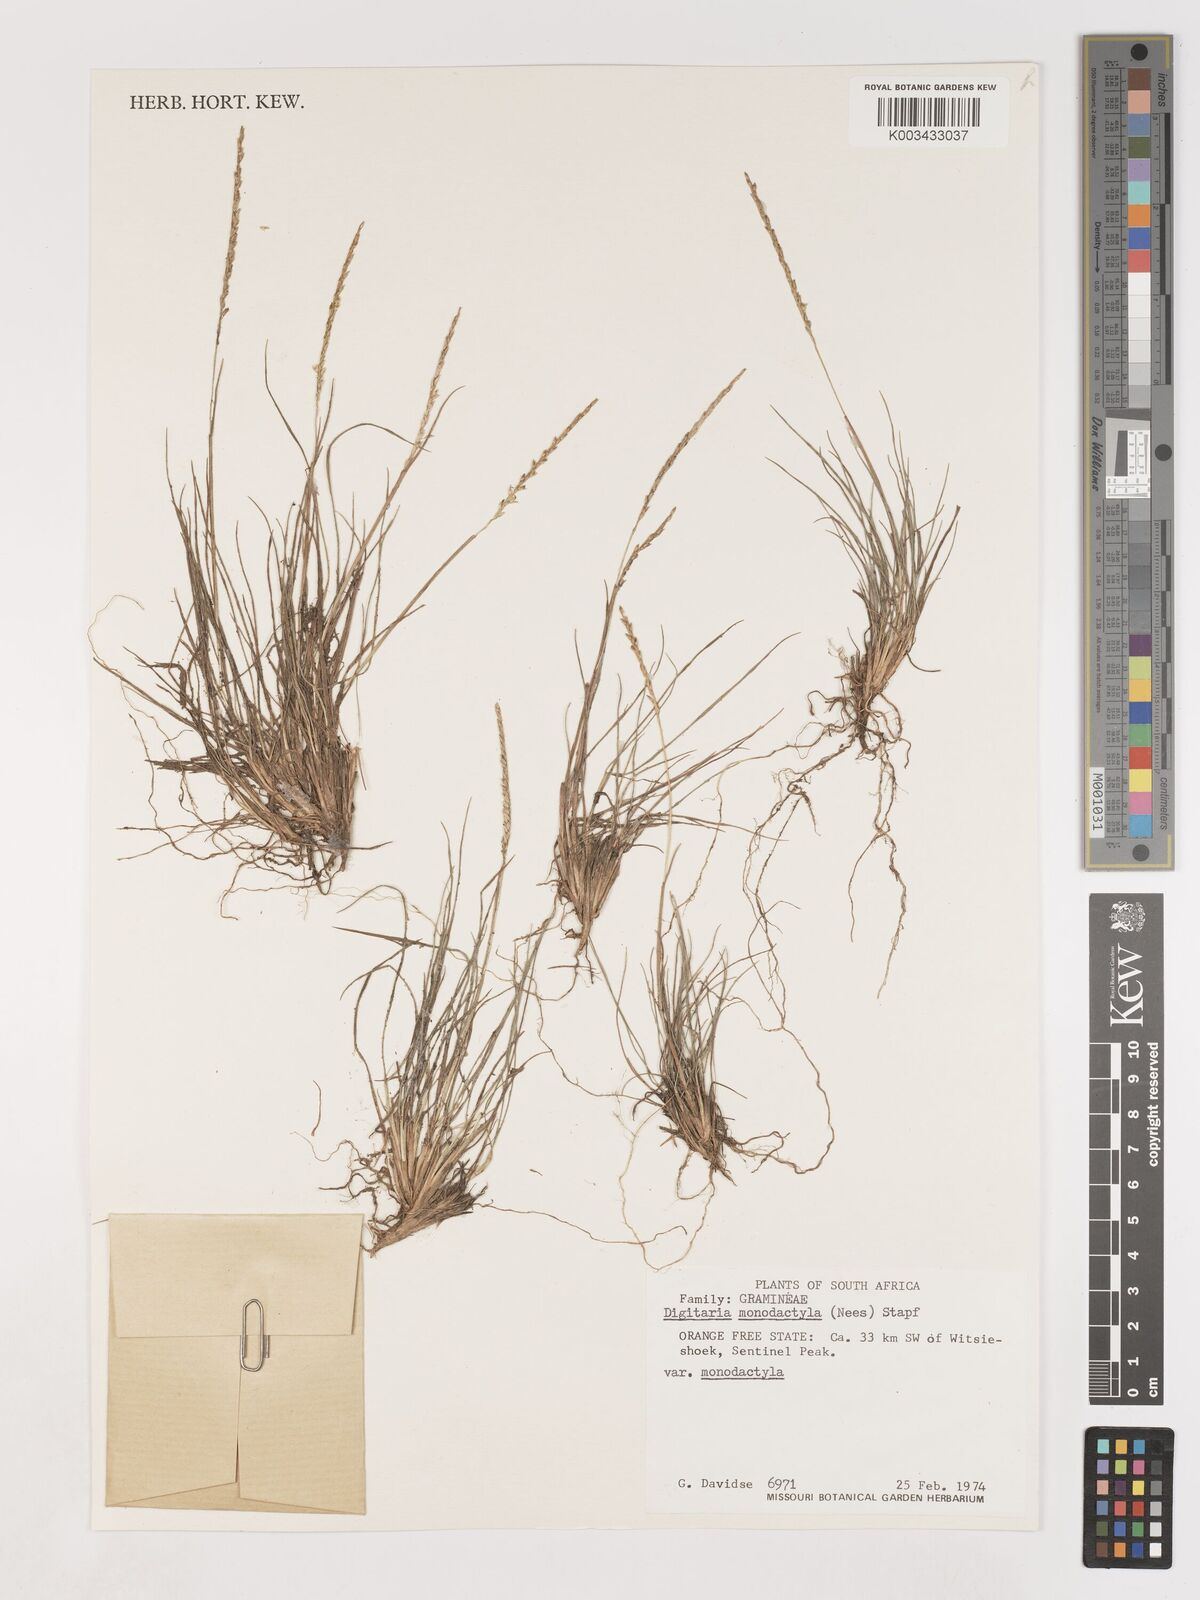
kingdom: Plantae
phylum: Tracheophyta
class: Liliopsida
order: Poales
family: Poaceae
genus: Digitaria
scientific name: Digitaria monodactyla
